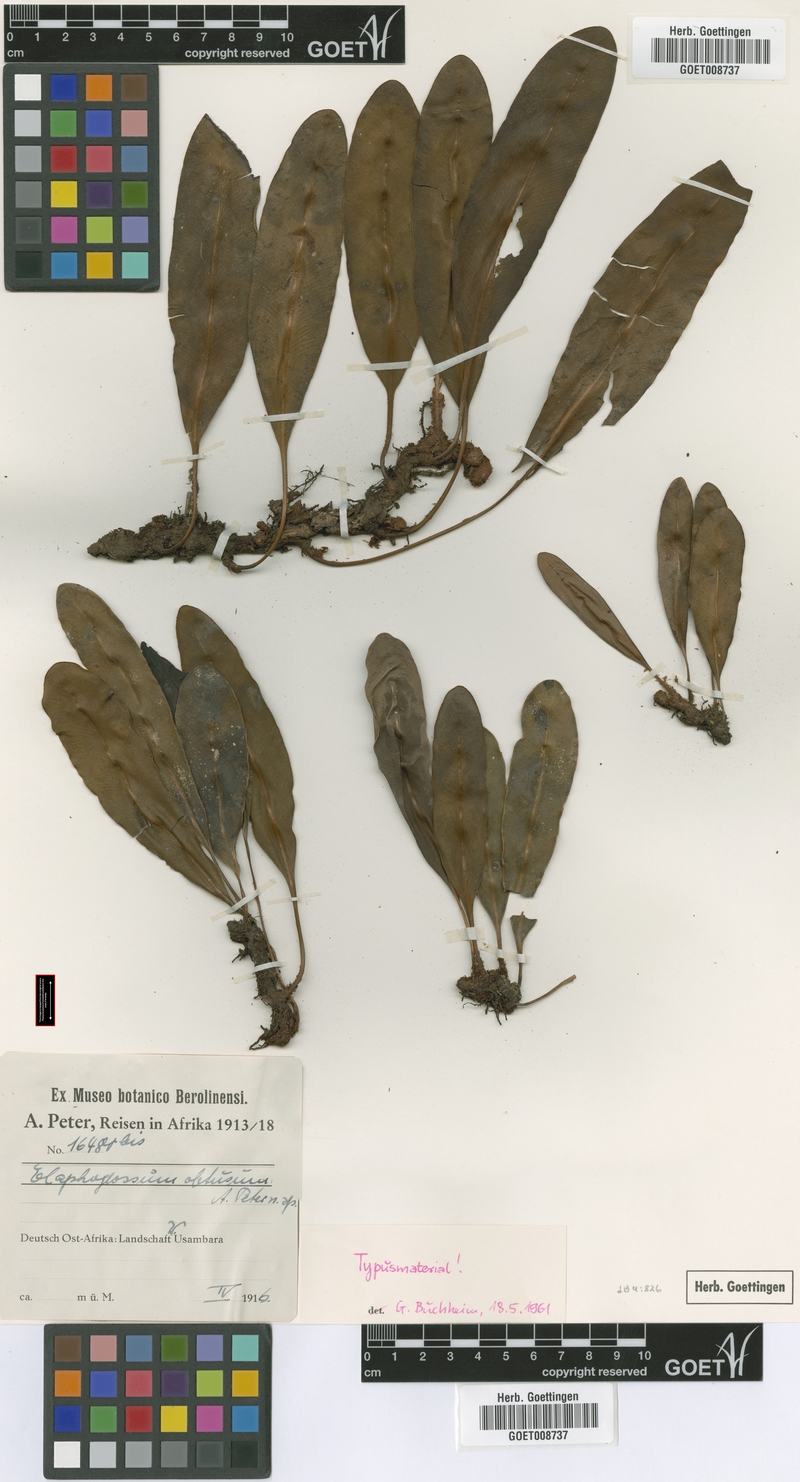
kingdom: Plantae
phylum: Tracheophyta
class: Polypodiopsida
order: Polypodiales
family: Dryopteridaceae
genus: Elaphoglossum
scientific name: Elaphoglossum lastii
